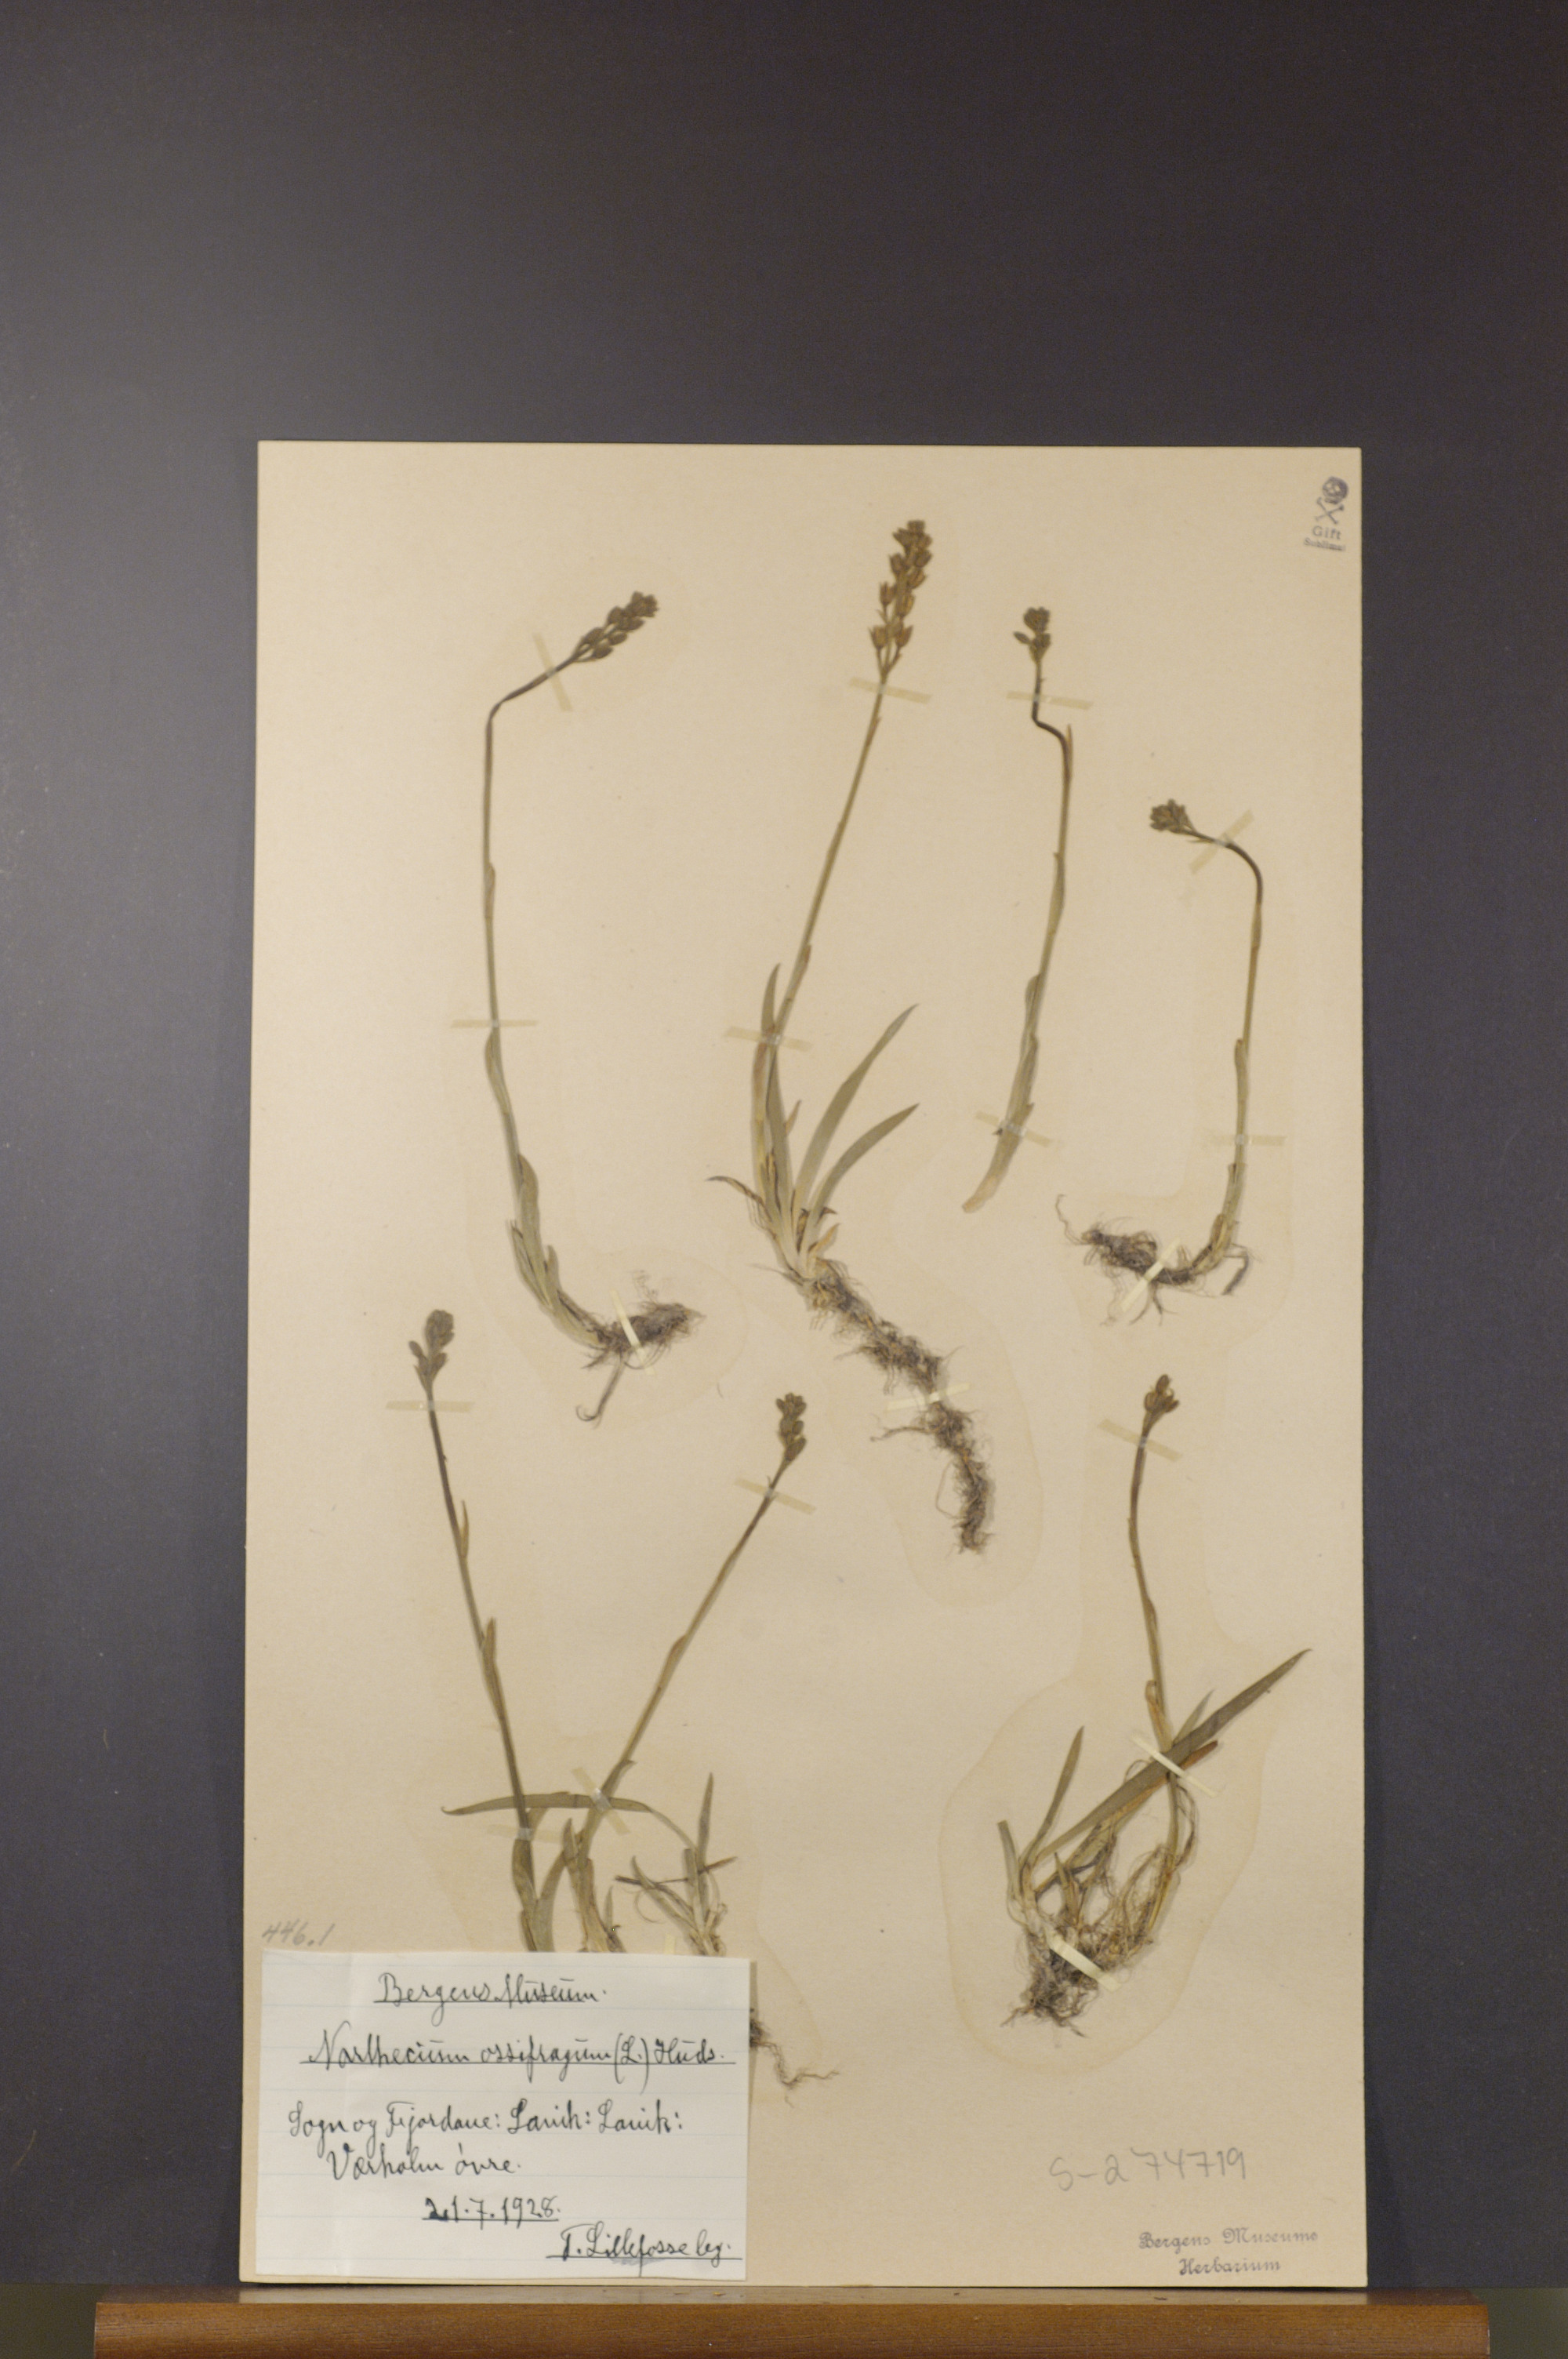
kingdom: Plantae
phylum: Tracheophyta
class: Liliopsida
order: Dioscoreales
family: Nartheciaceae
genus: Narthecium
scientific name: Narthecium ossifragum
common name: Bog asphodel
